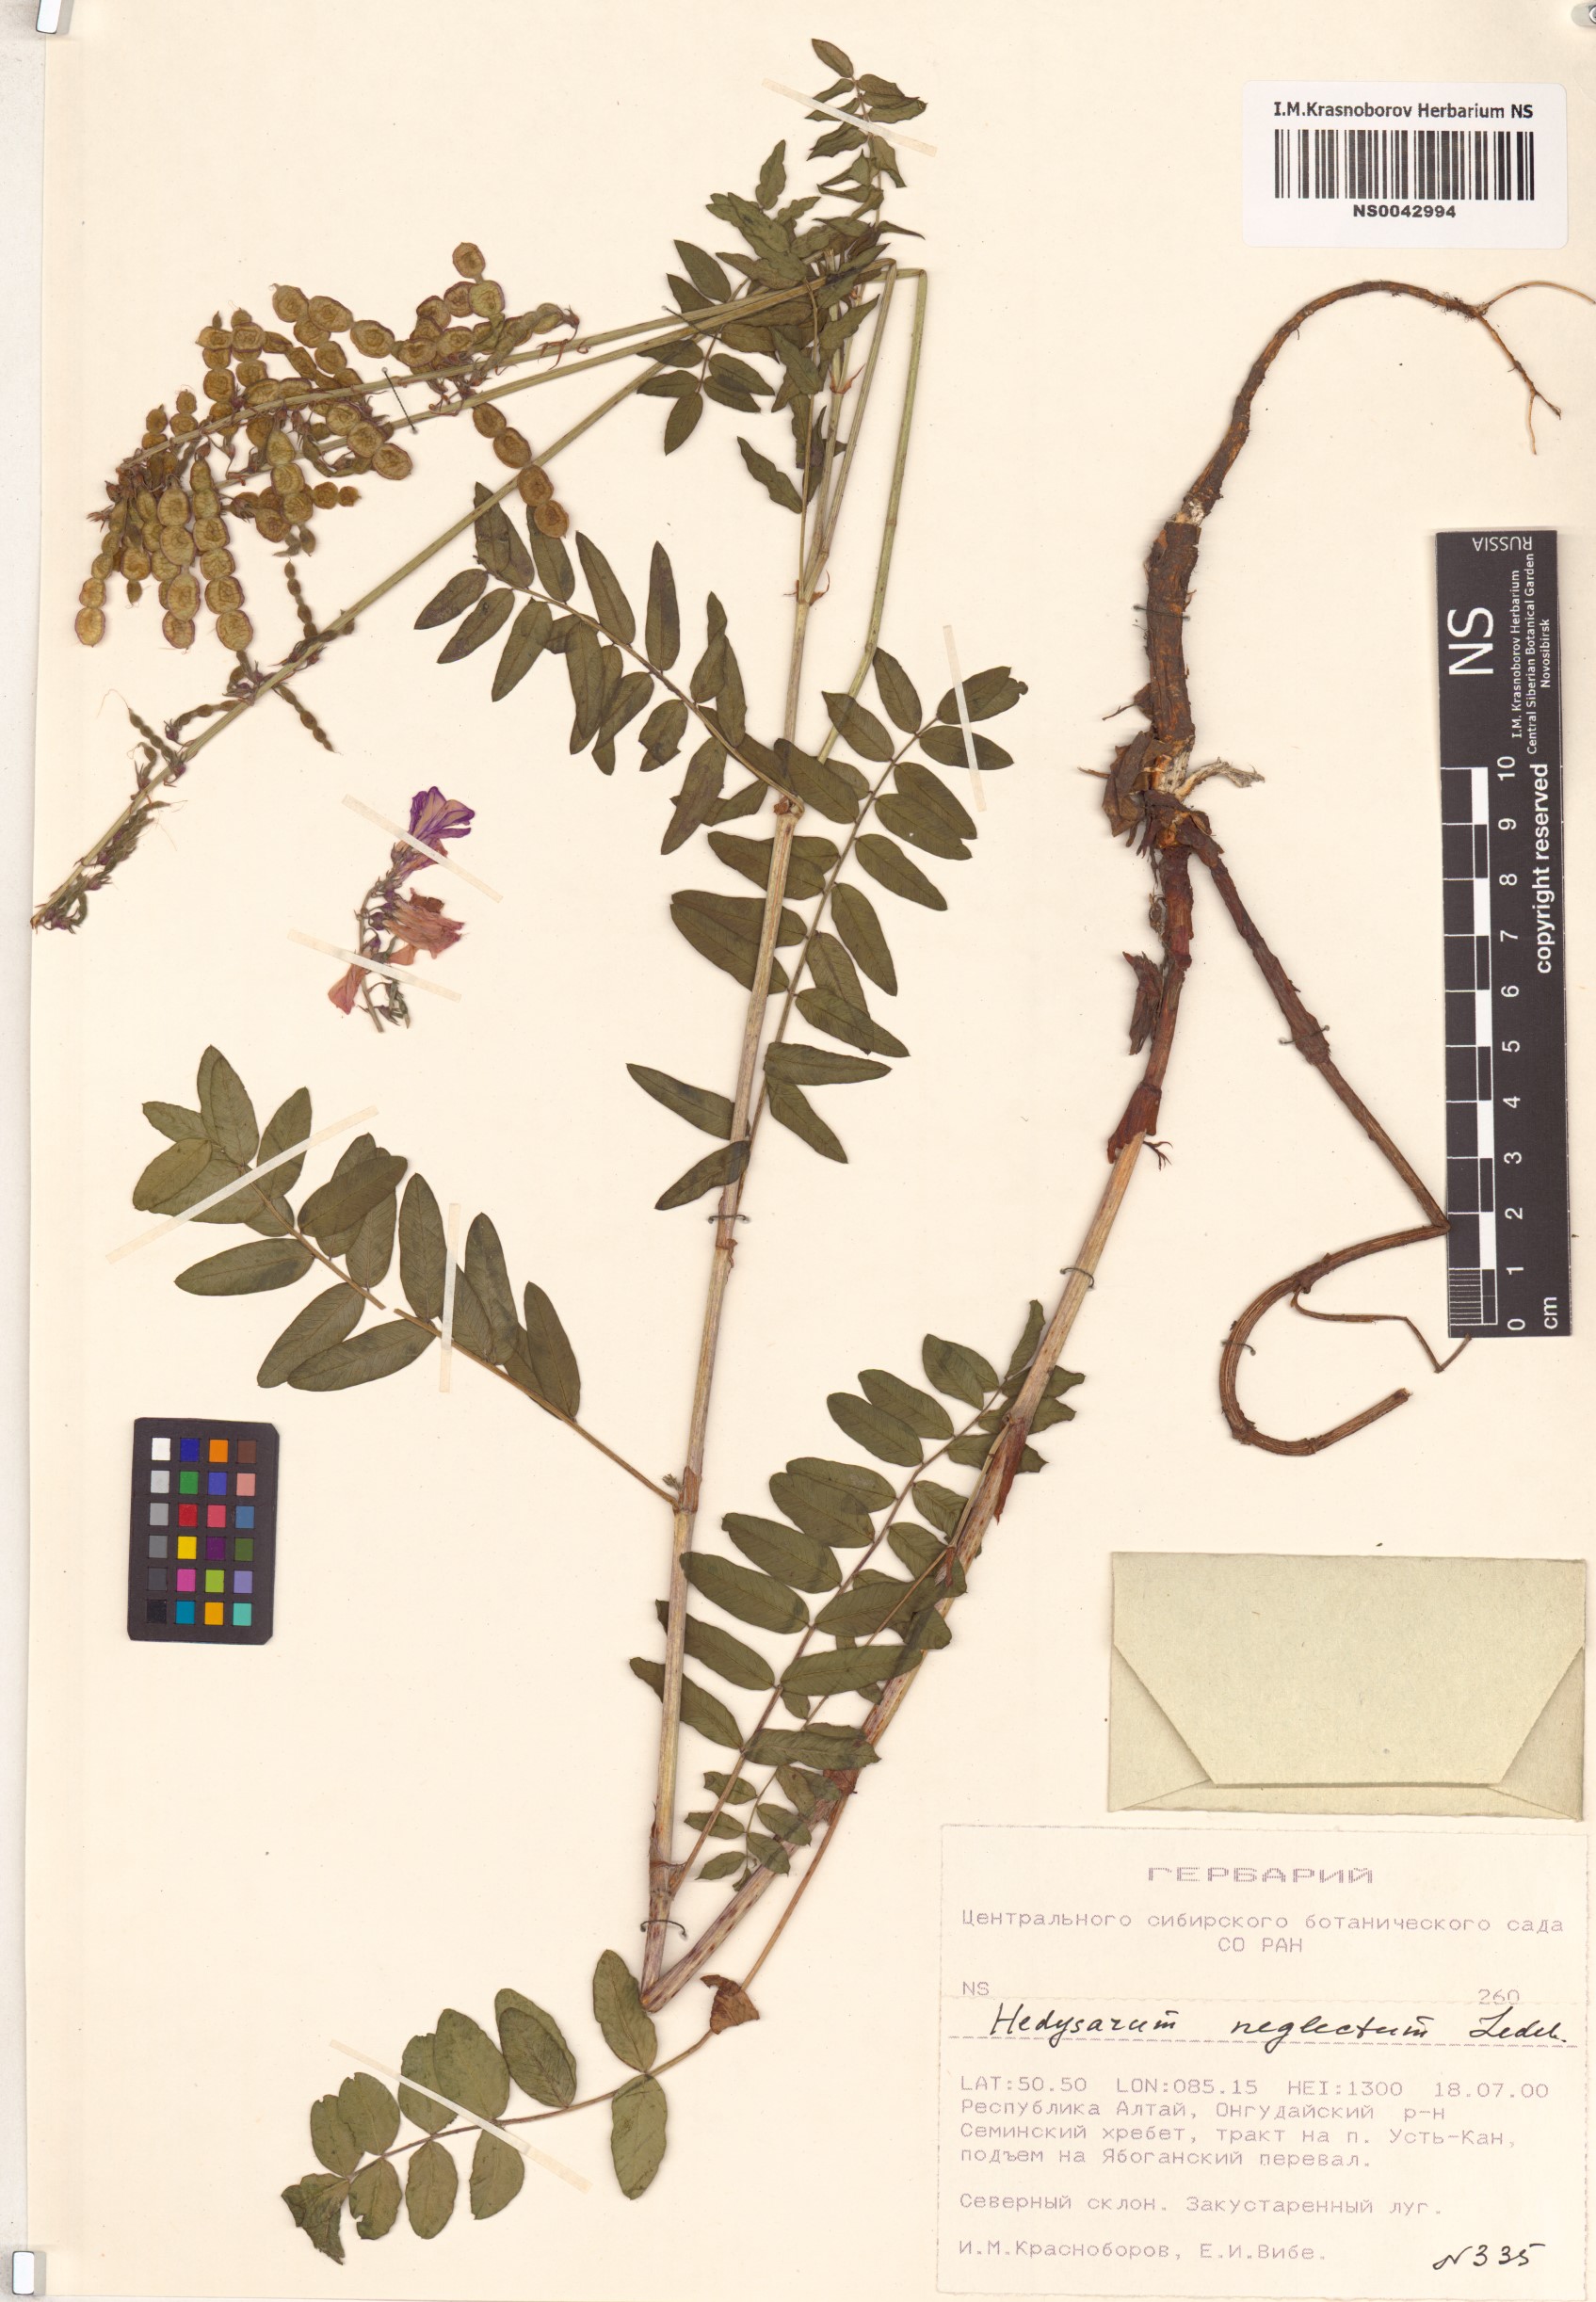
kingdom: Plantae
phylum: Tracheophyta
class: Magnoliopsida
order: Fabales
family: Fabaceae
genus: Hedysarum
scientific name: Hedysarum neglectum
